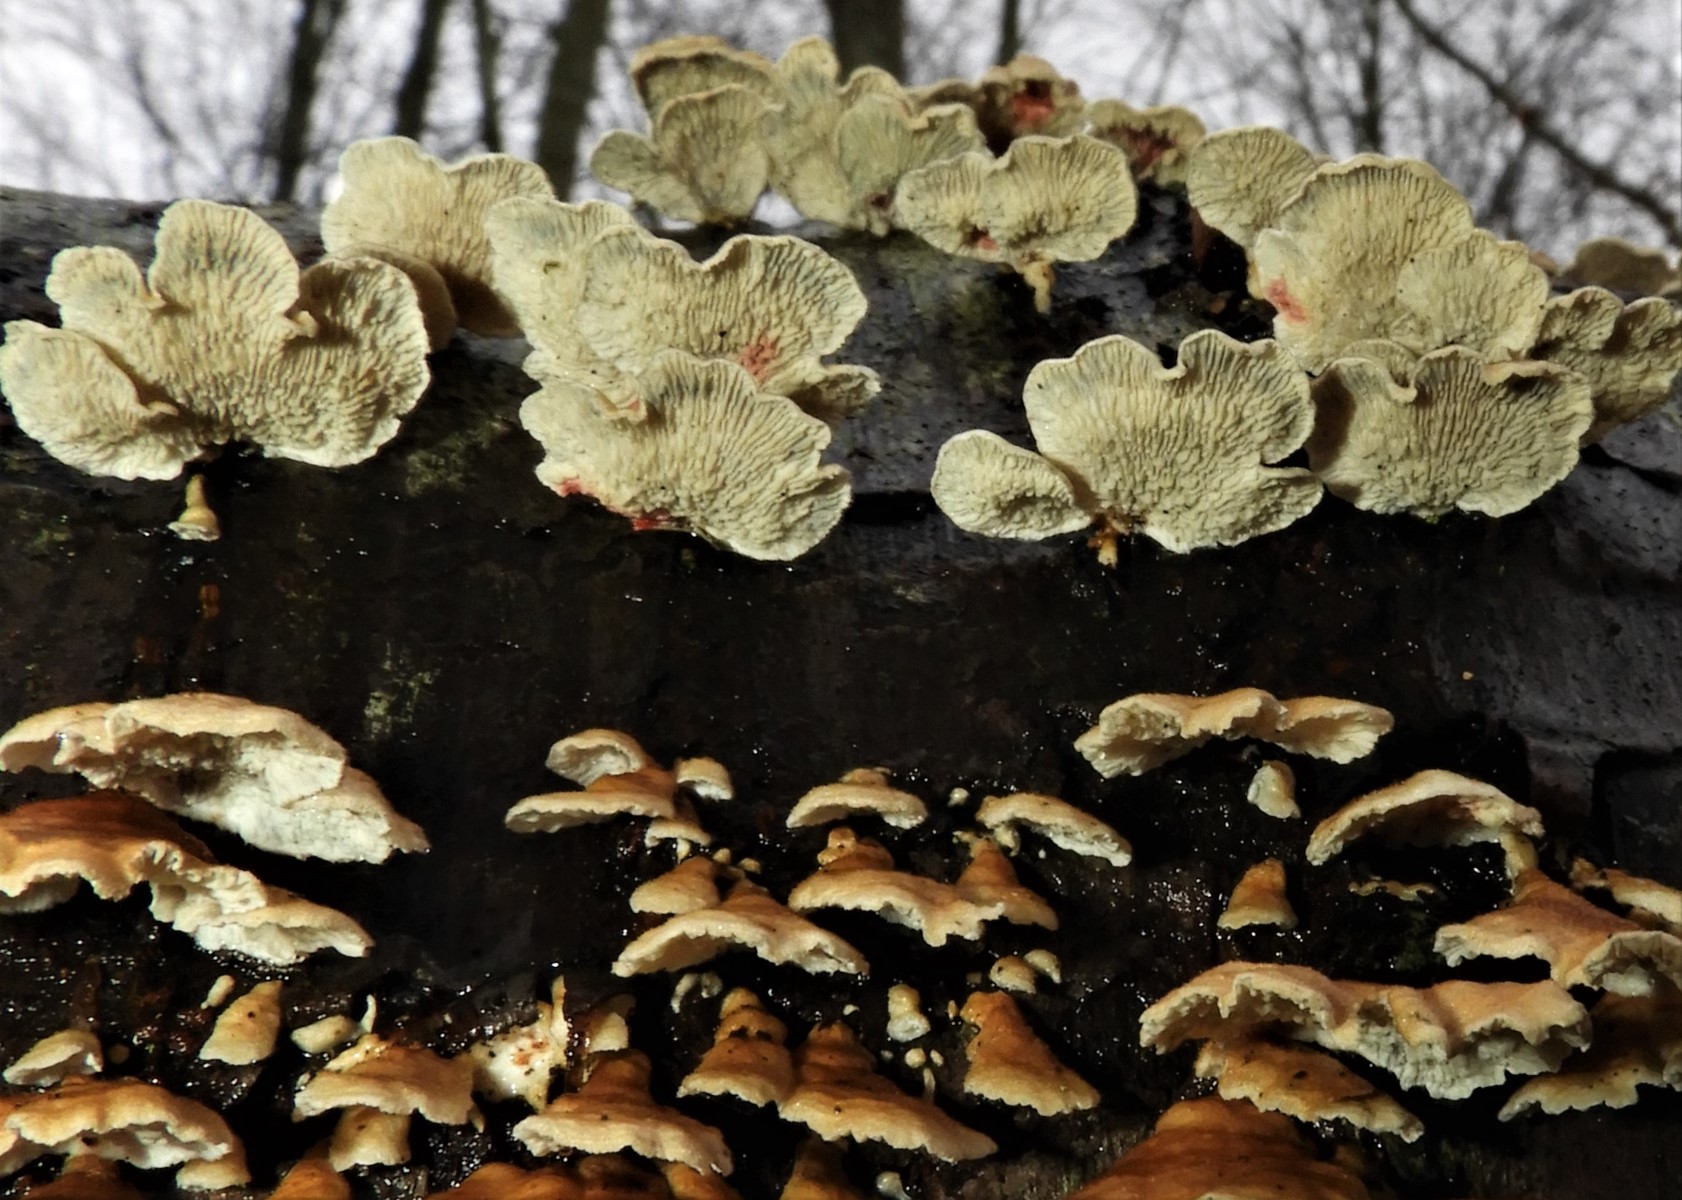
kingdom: Fungi
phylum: Basidiomycota
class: Agaricomycetes
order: Amylocorticiales
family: Amylocorticiaceae
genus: Plicaturopsis
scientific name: Plicaturopsis crispa
